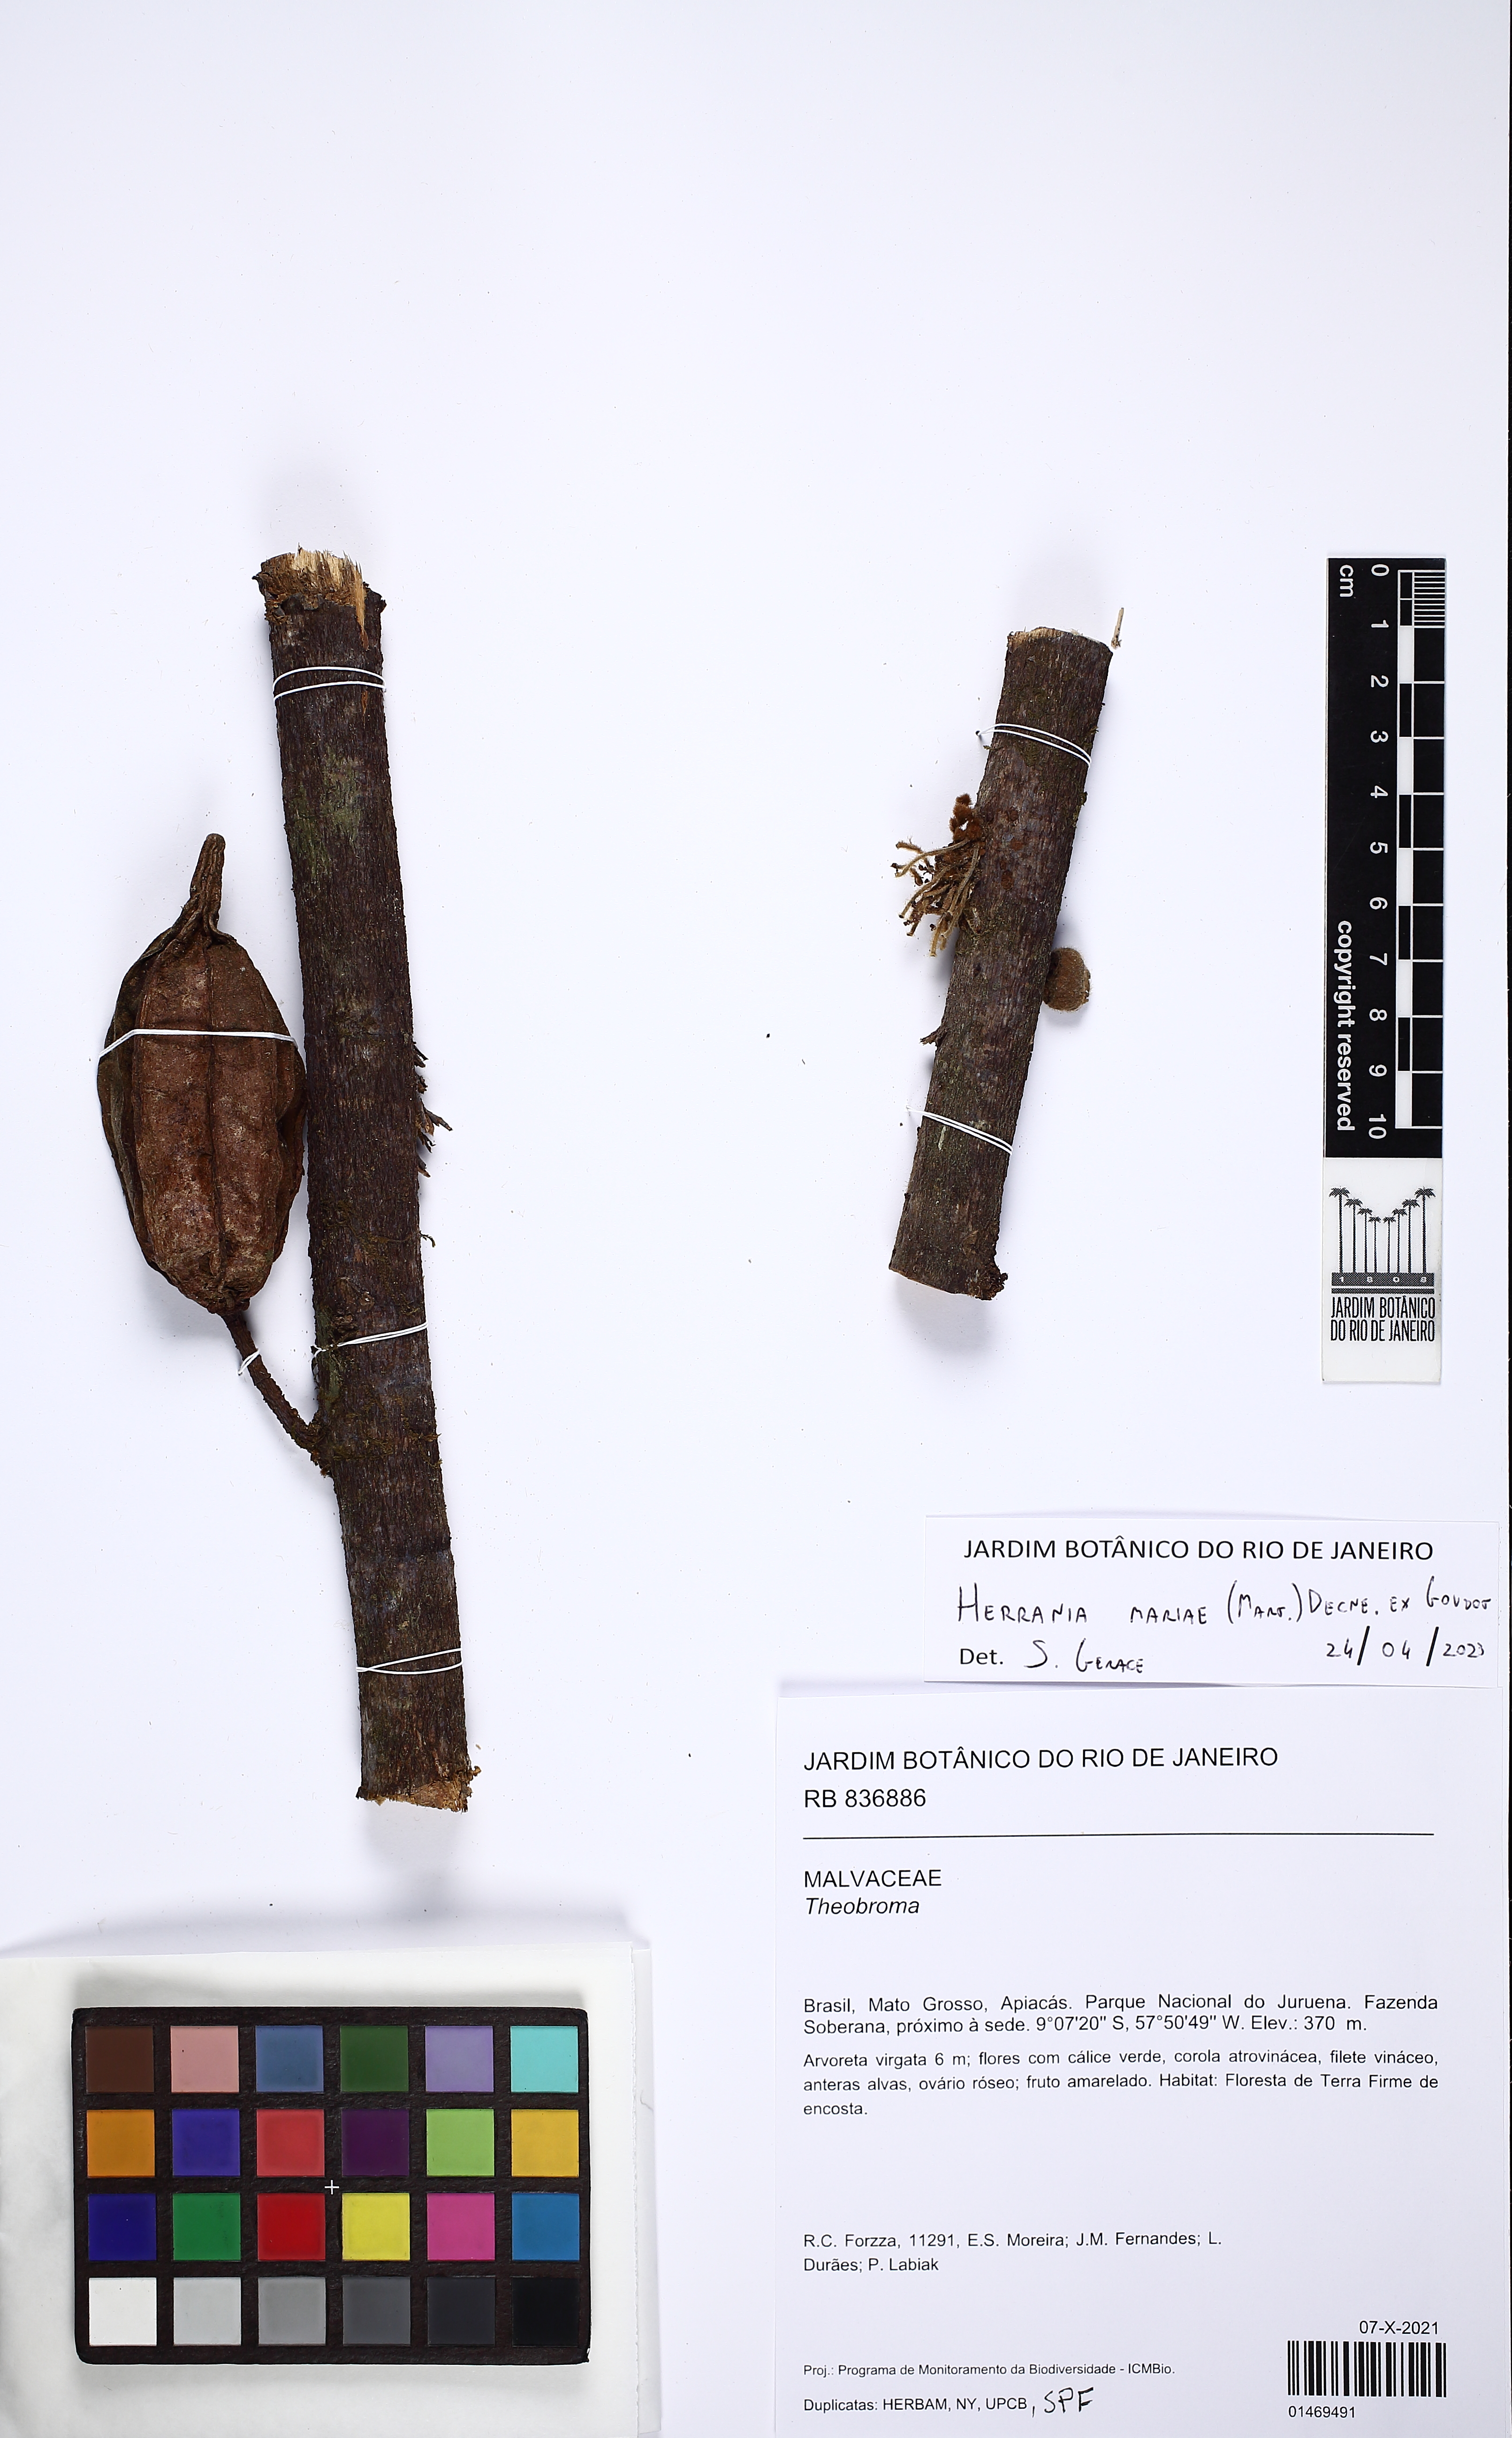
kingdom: Plantae
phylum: Tracheophyta
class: Magnoliopsida
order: Malvales
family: Malvaceae
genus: Herrania
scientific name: Herrania mariae
